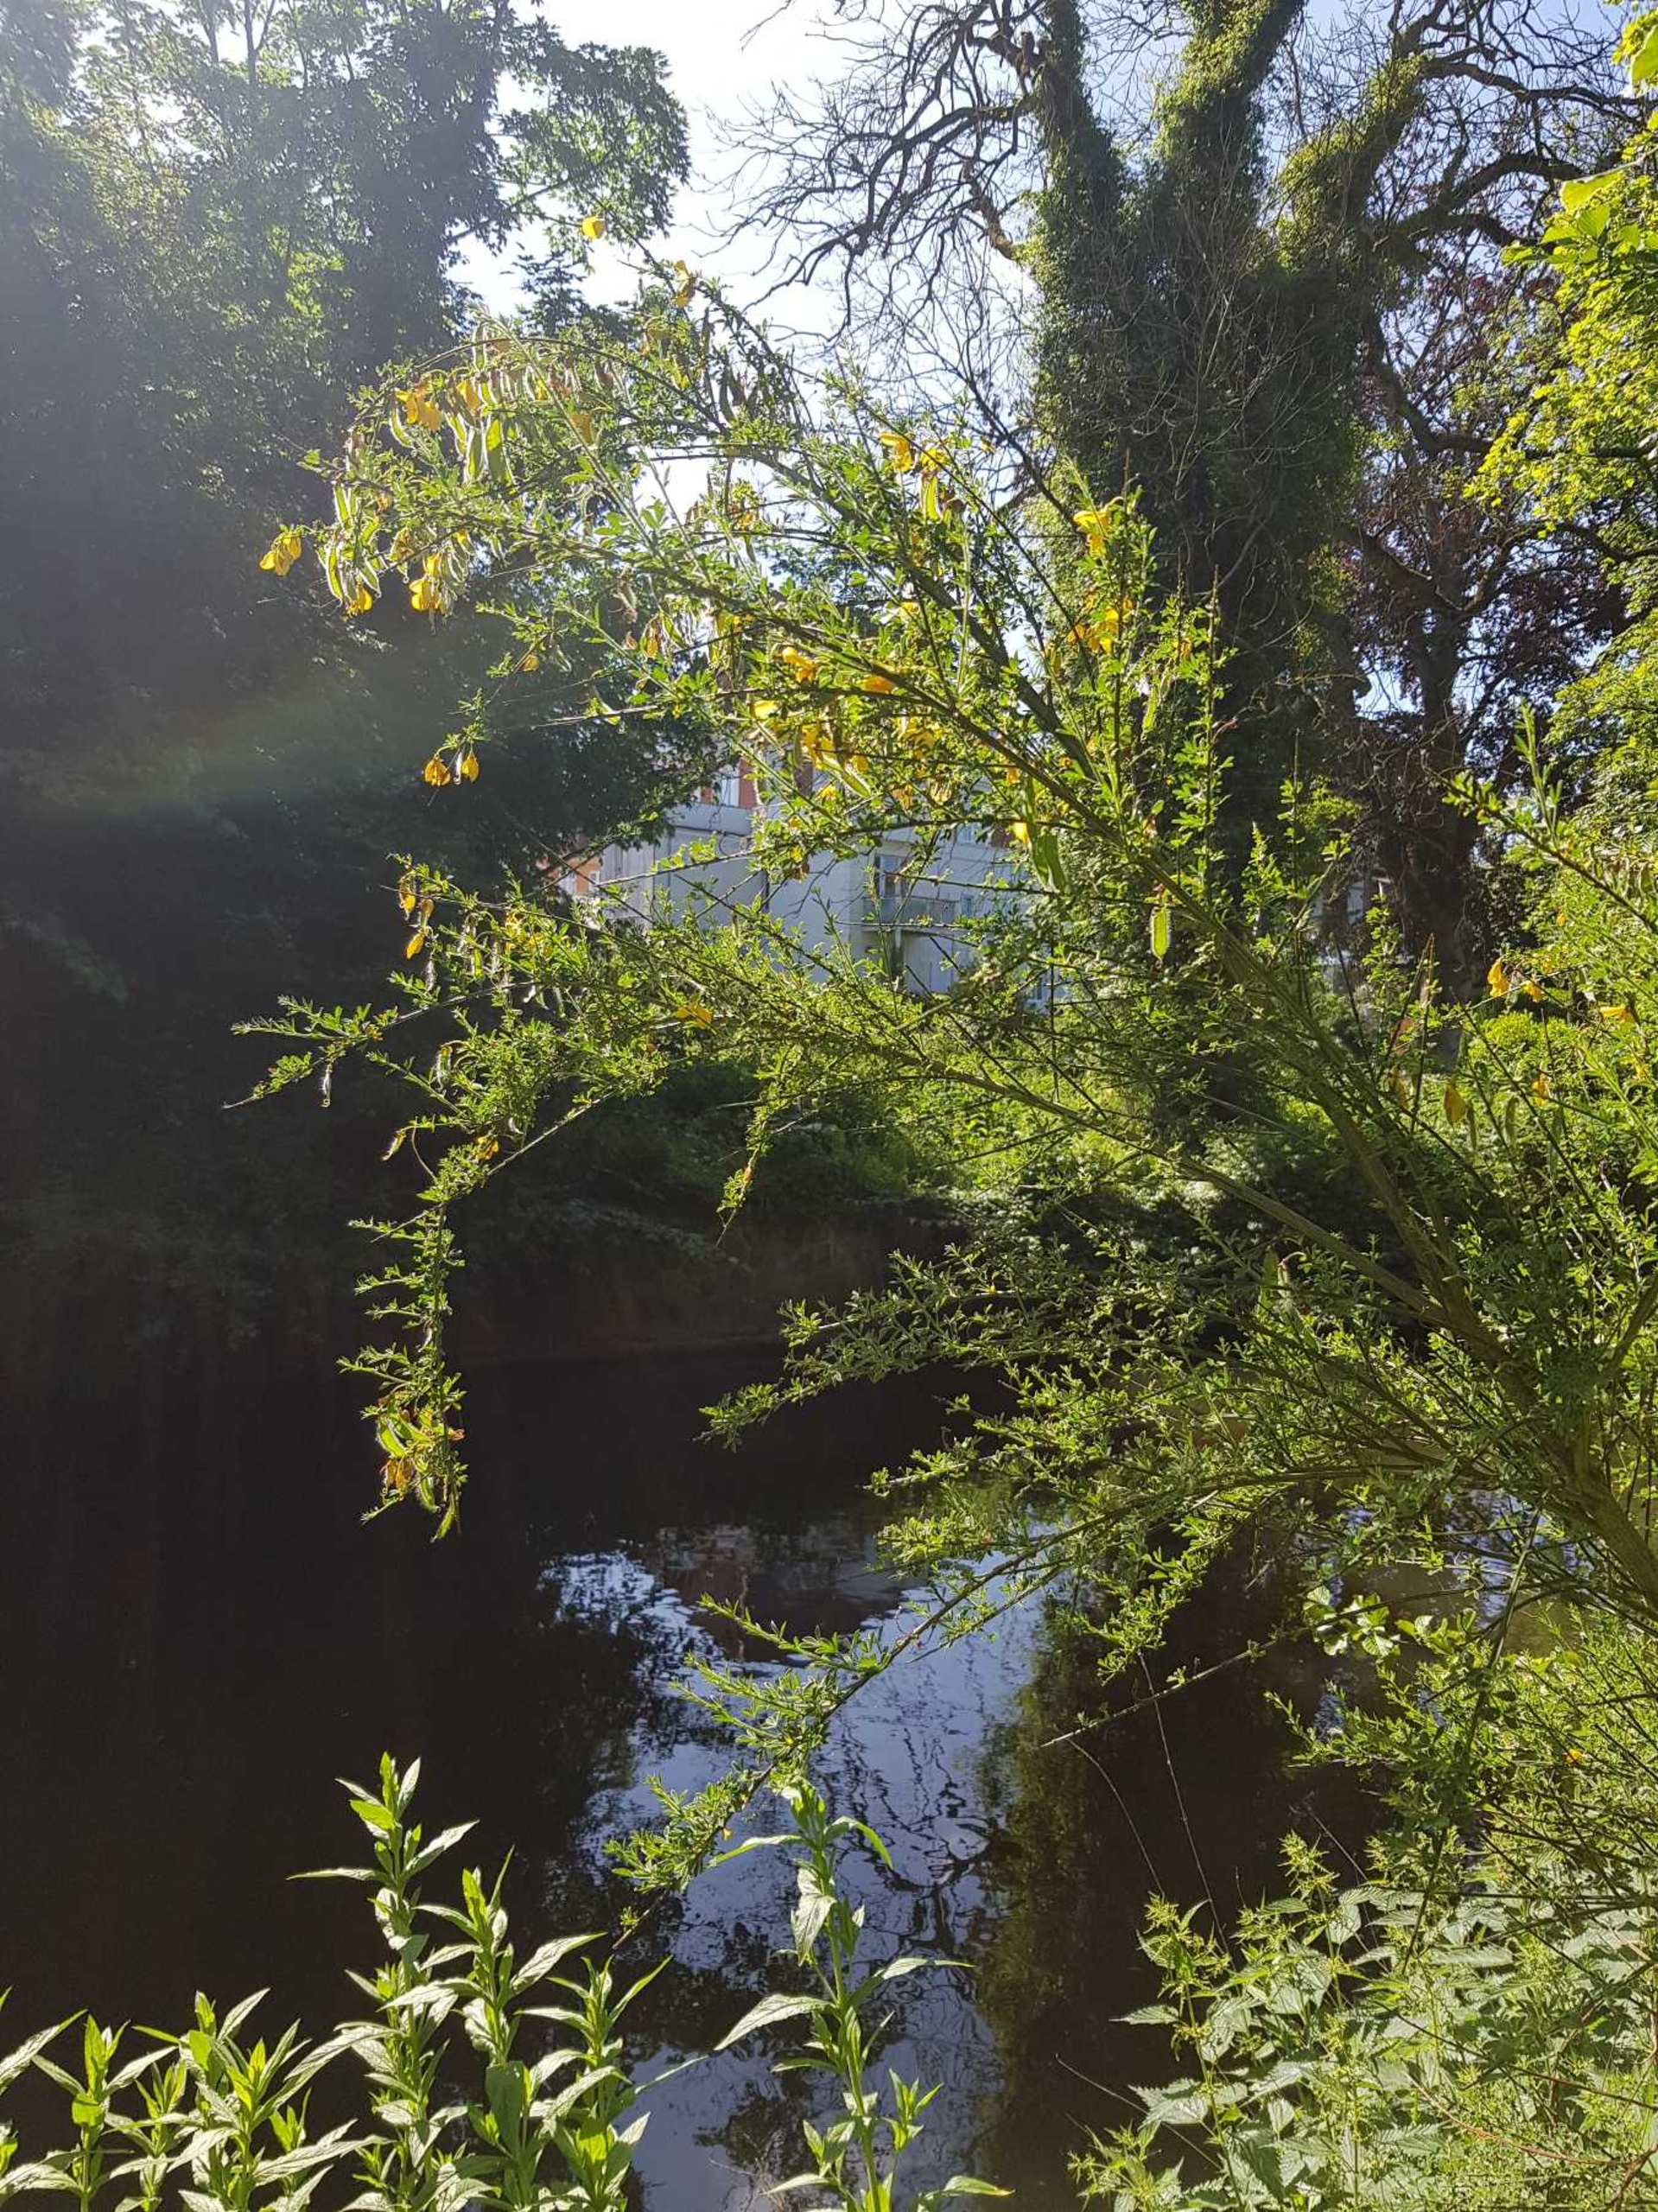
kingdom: Plantae
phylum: Tracheophyta
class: Magnoliopsida
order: Fabales
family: Fabaceae
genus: Cytisus
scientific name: Cytisus scoparius
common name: Almindelig gyvel
